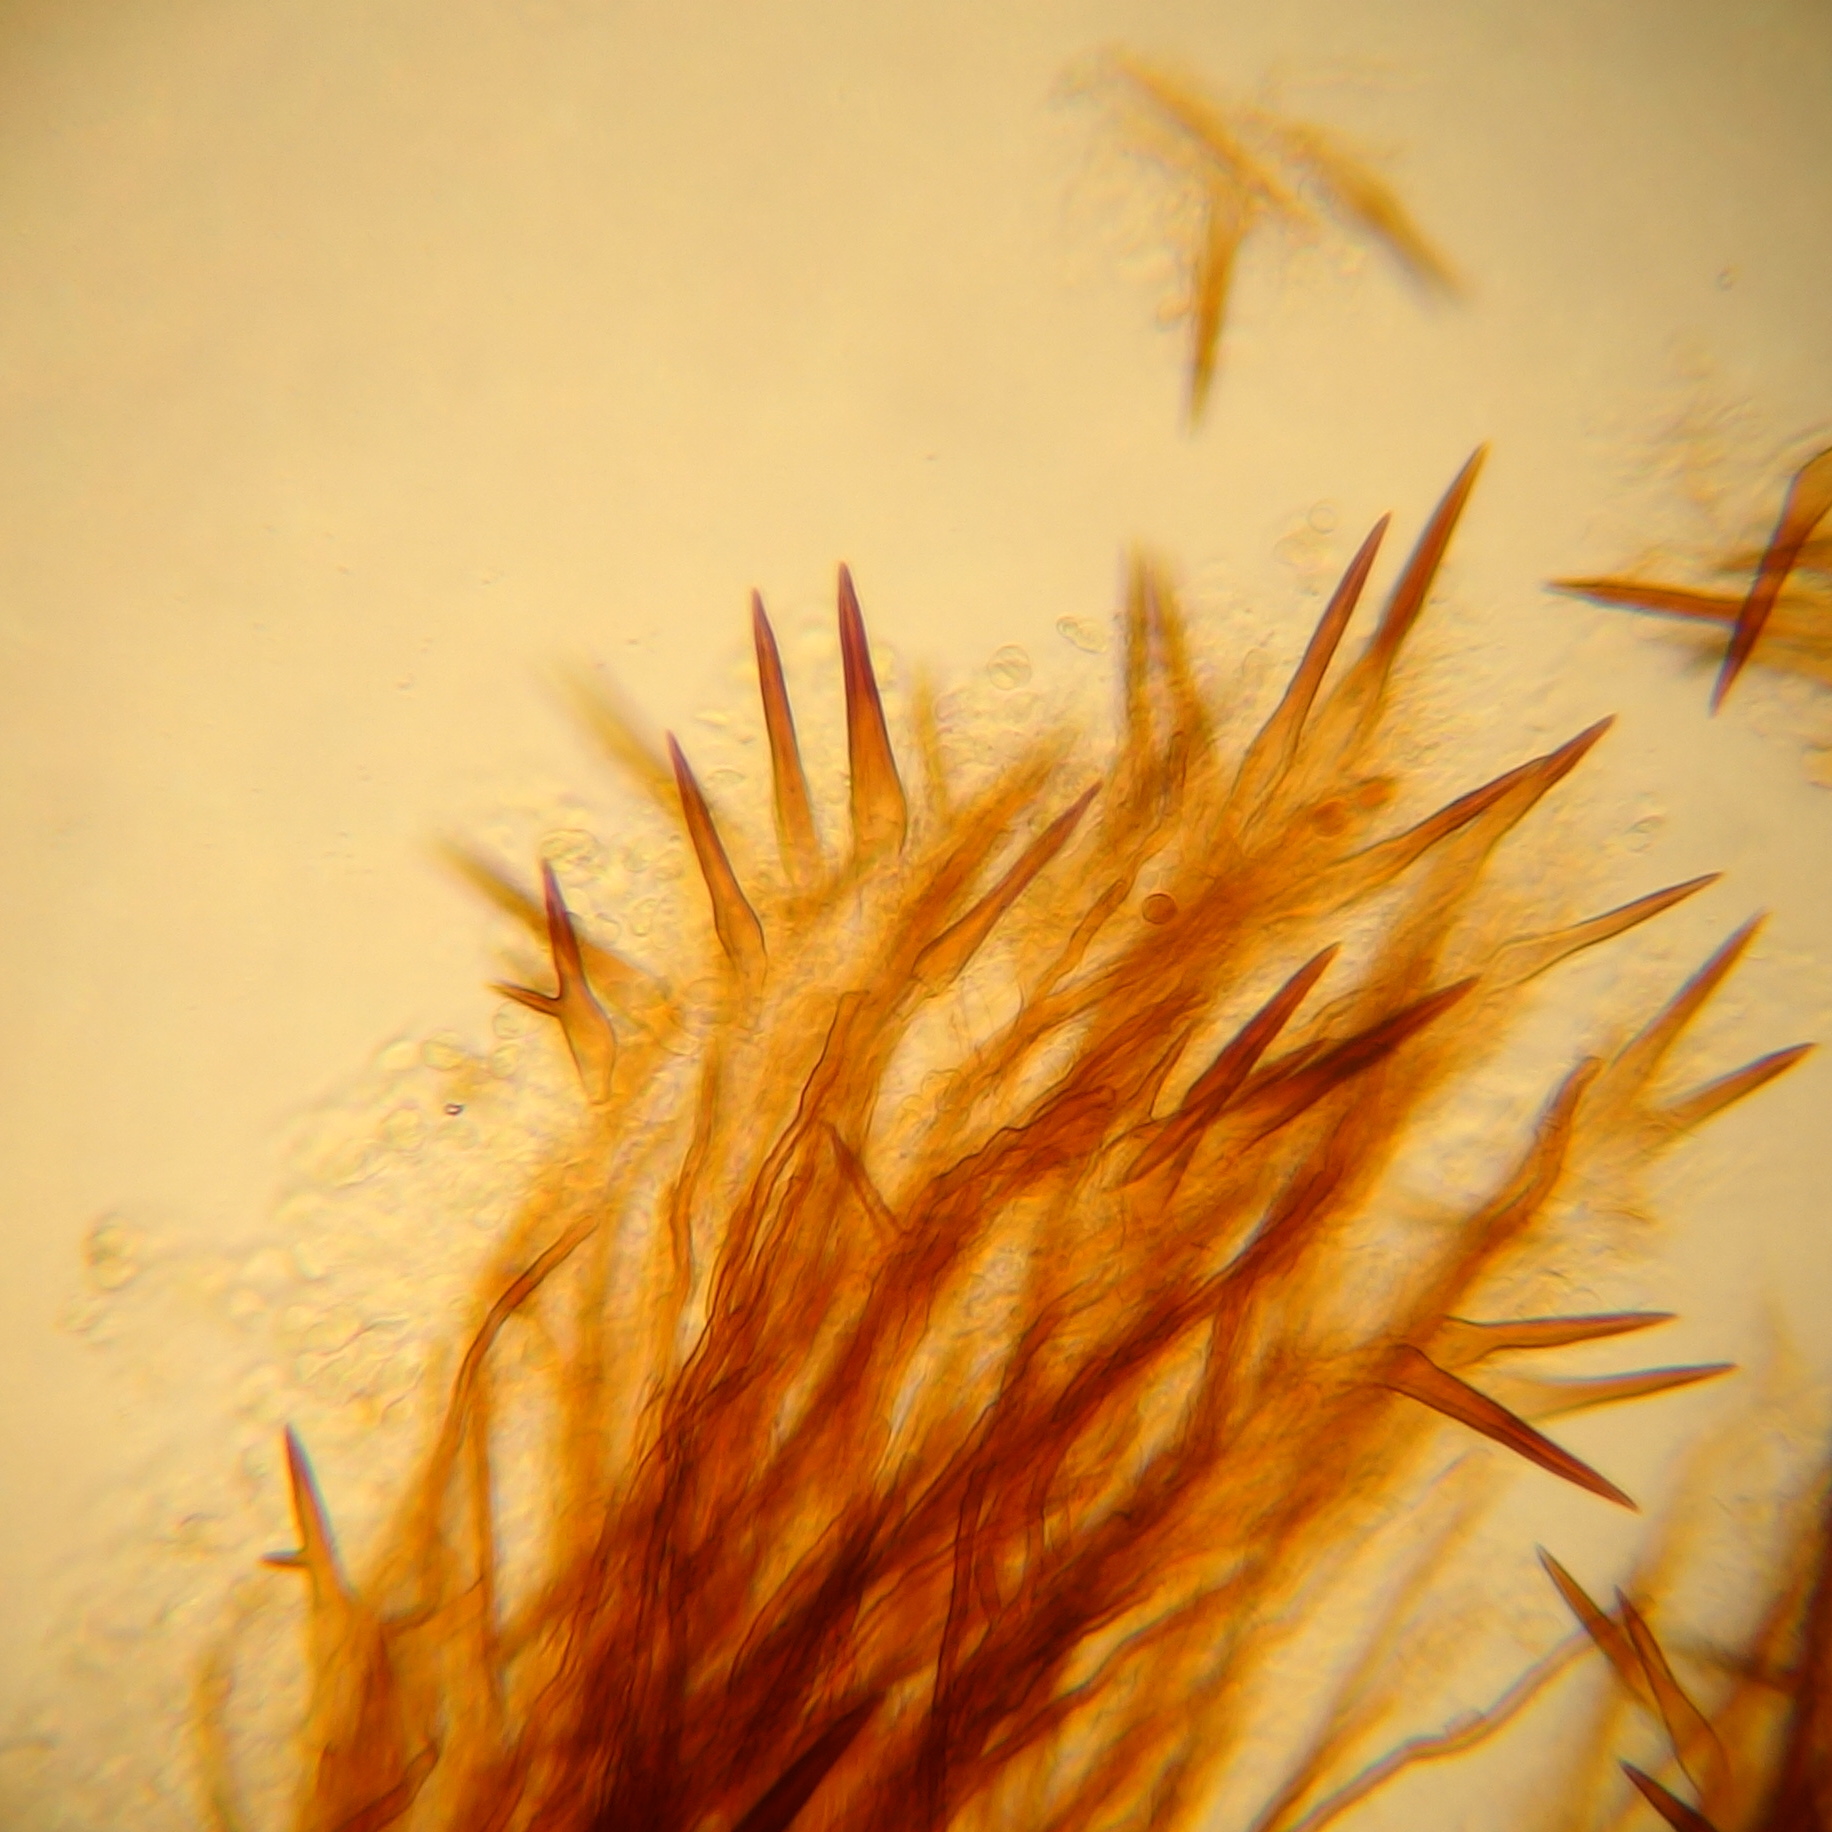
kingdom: Fungi
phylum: Basidiomycota
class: Agaricomycetes
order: Hymenochaetales
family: Hymenochaetaceae
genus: Asterodon
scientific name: Asterodon ferruginosus
